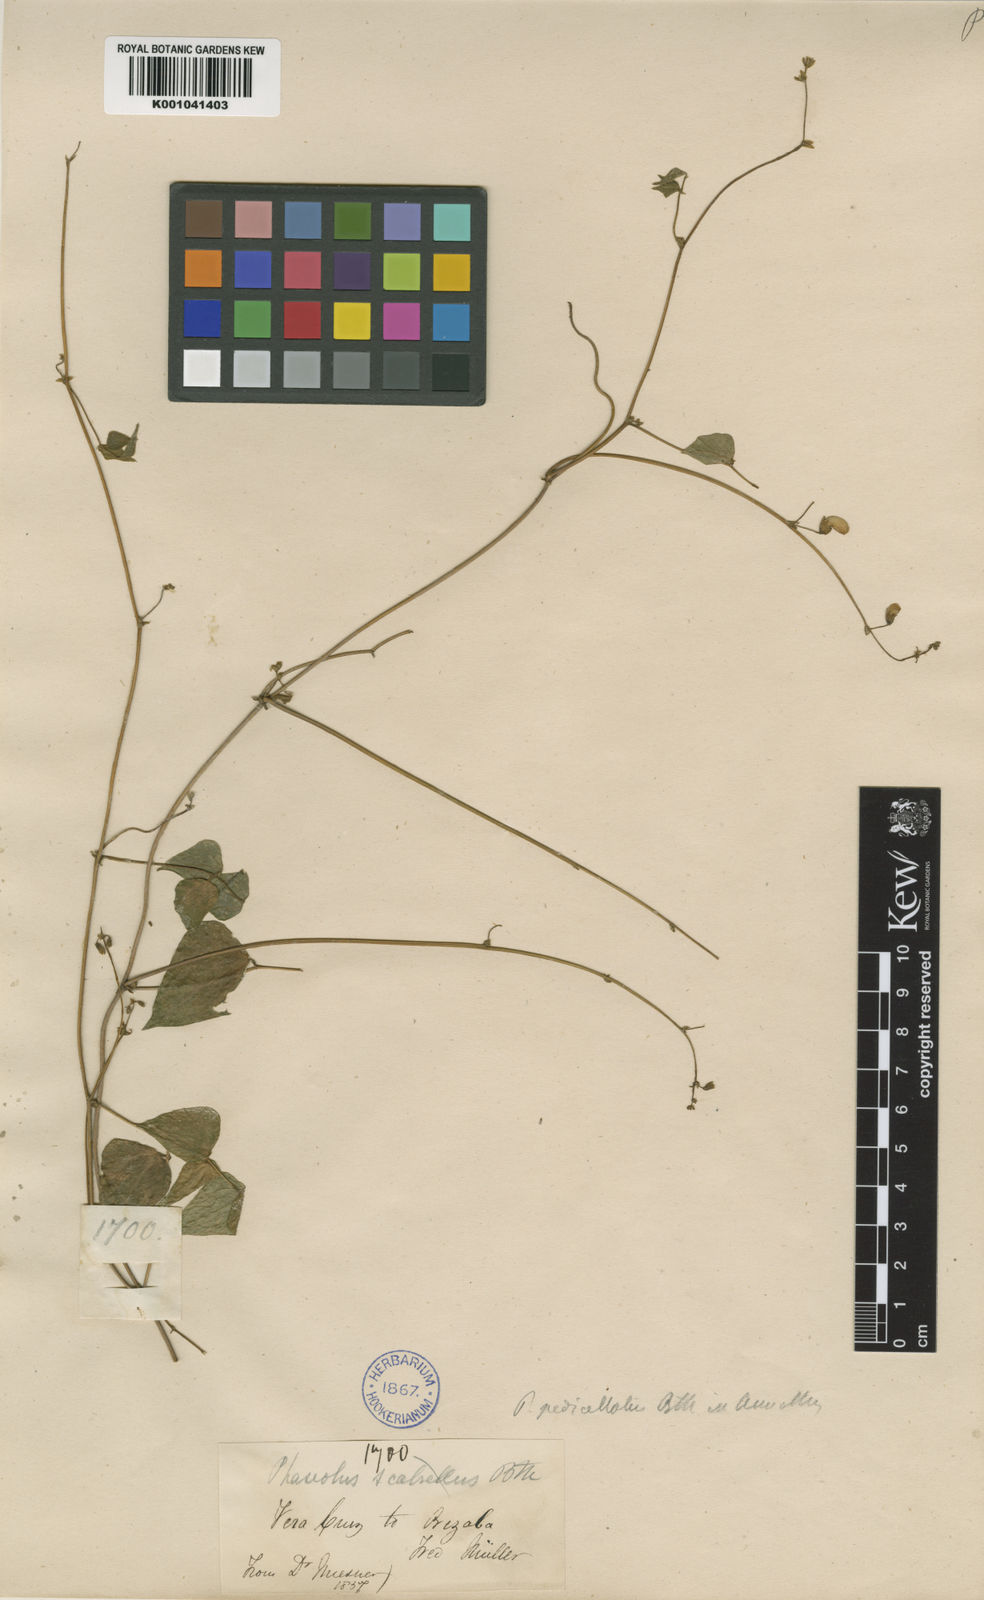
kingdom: Plantae
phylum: Tracheophyta
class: Magnoliopsida
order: Fabales
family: Fabaceae
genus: Phaseolus
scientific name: Phaseolus pedicellatus
